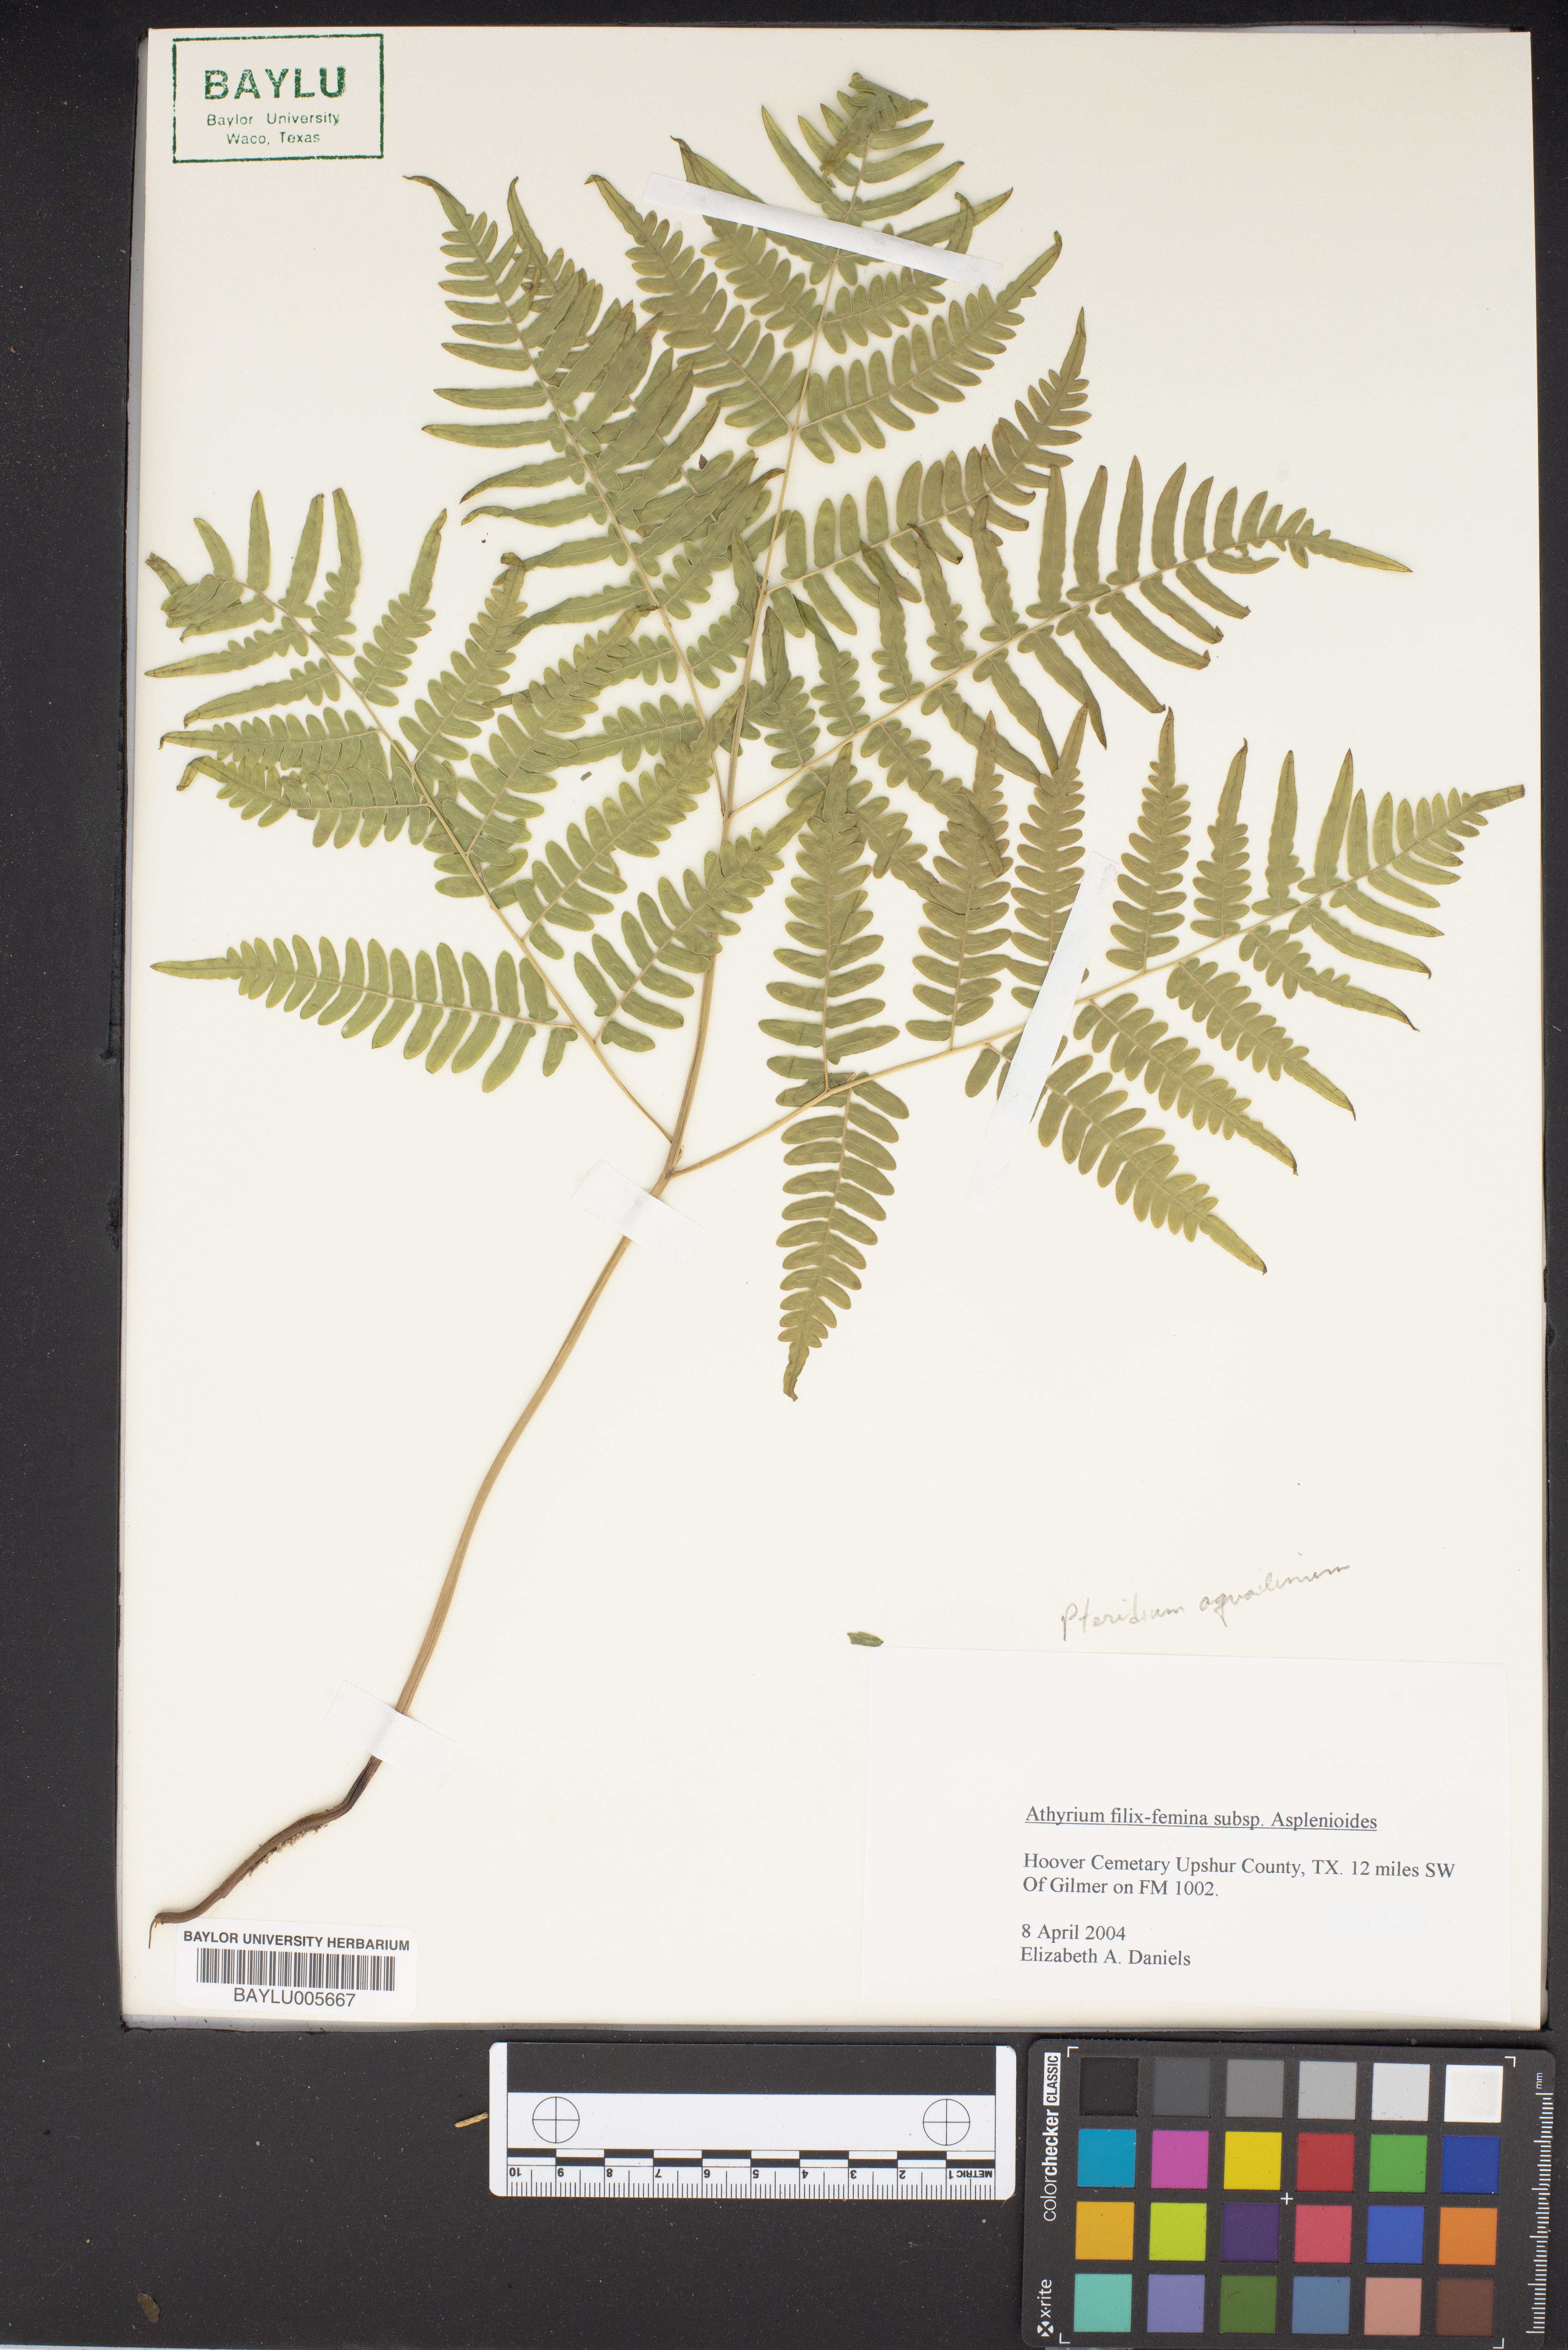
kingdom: Plantae
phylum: Tracheophyta
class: Polypodiopsida
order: Polypodiales
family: Athyriaceae
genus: Athyrium
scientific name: Athyrium asplenioides
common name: Southern lady fern
